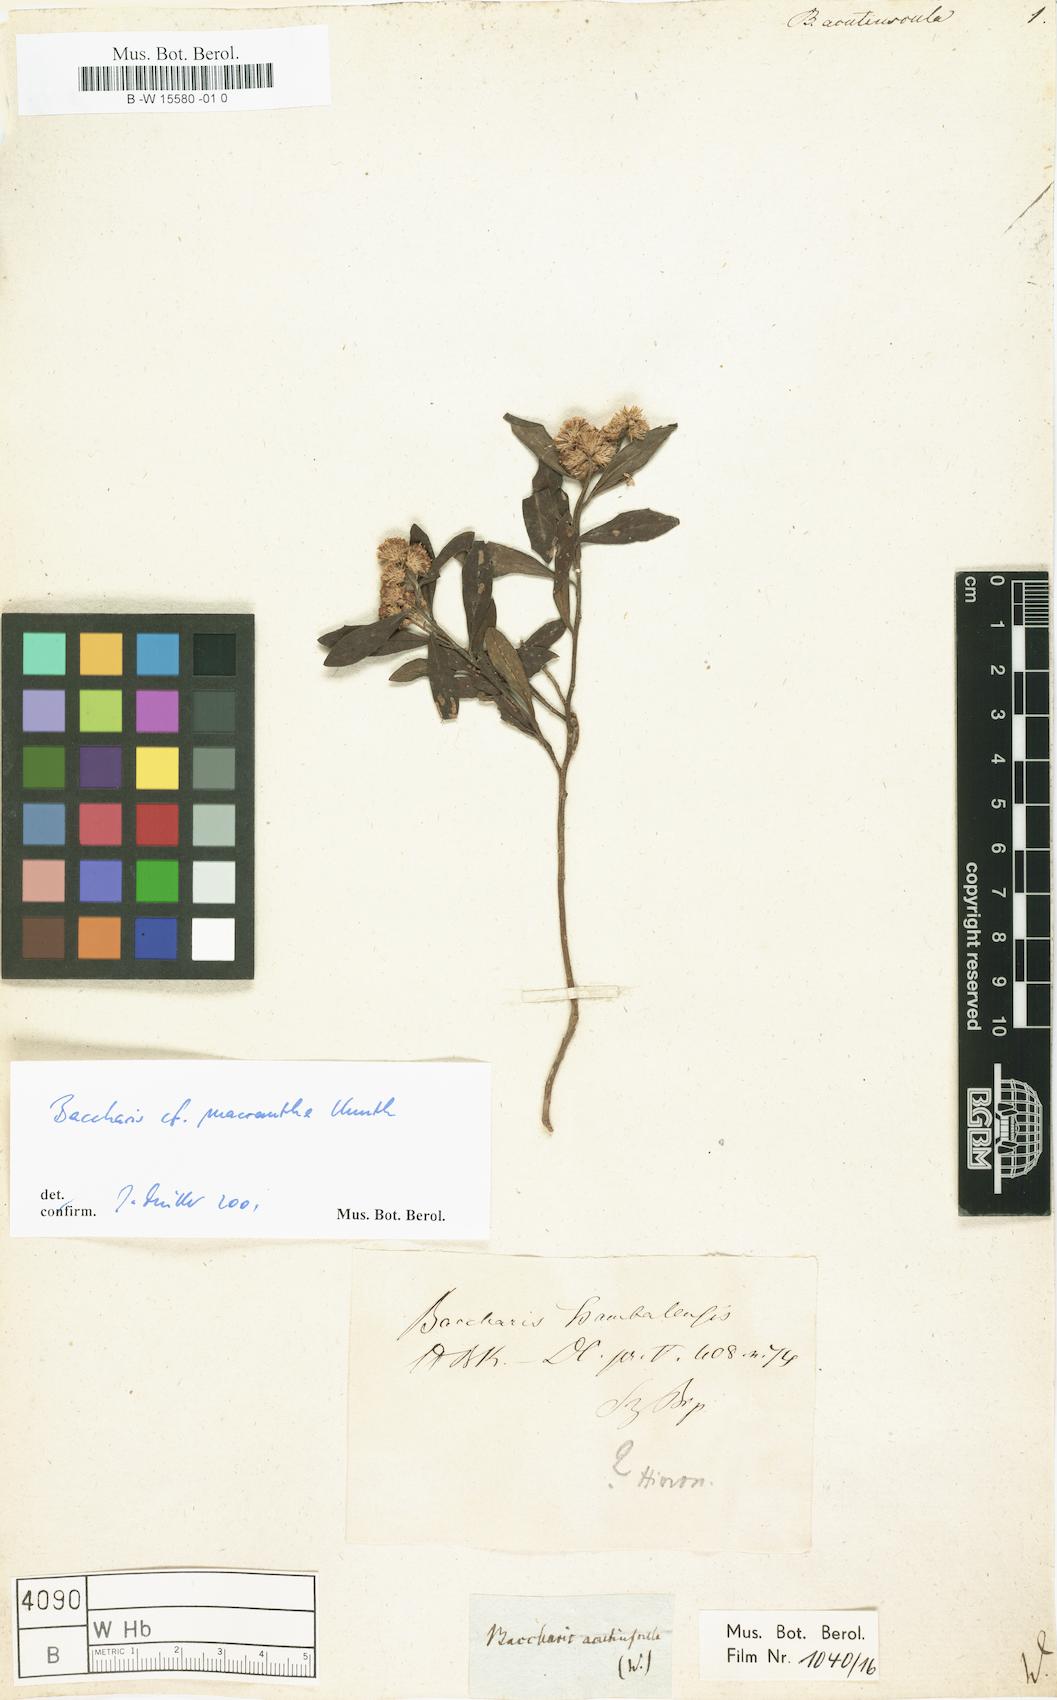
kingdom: Plantae
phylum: Tracheophyta
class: Magnoliopsida
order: Asterales
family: Asteraceae
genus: Baccharis
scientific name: Baccharis
